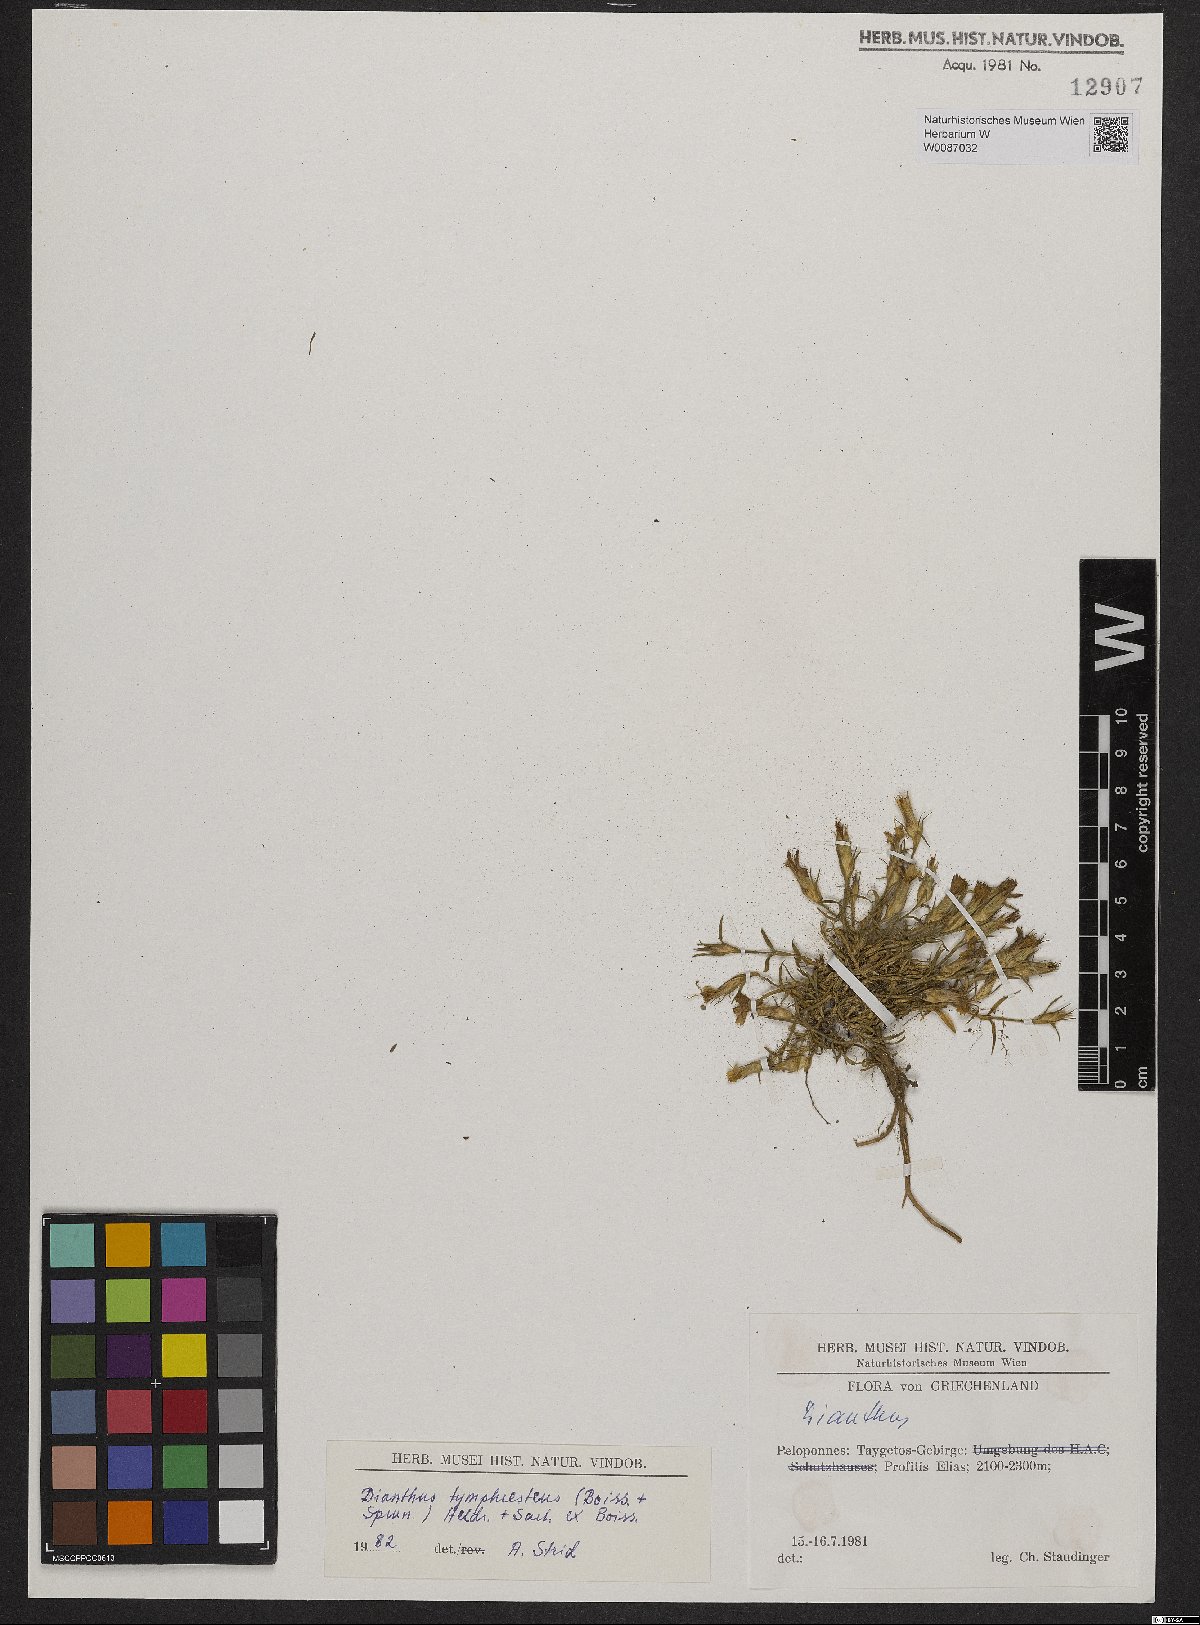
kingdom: Plantae
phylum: Tracheophyta
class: Magnoliopsida
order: Caryophyllales
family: Caryophyllaceae
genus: Dianthus
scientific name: Dianthus tymphresteus
